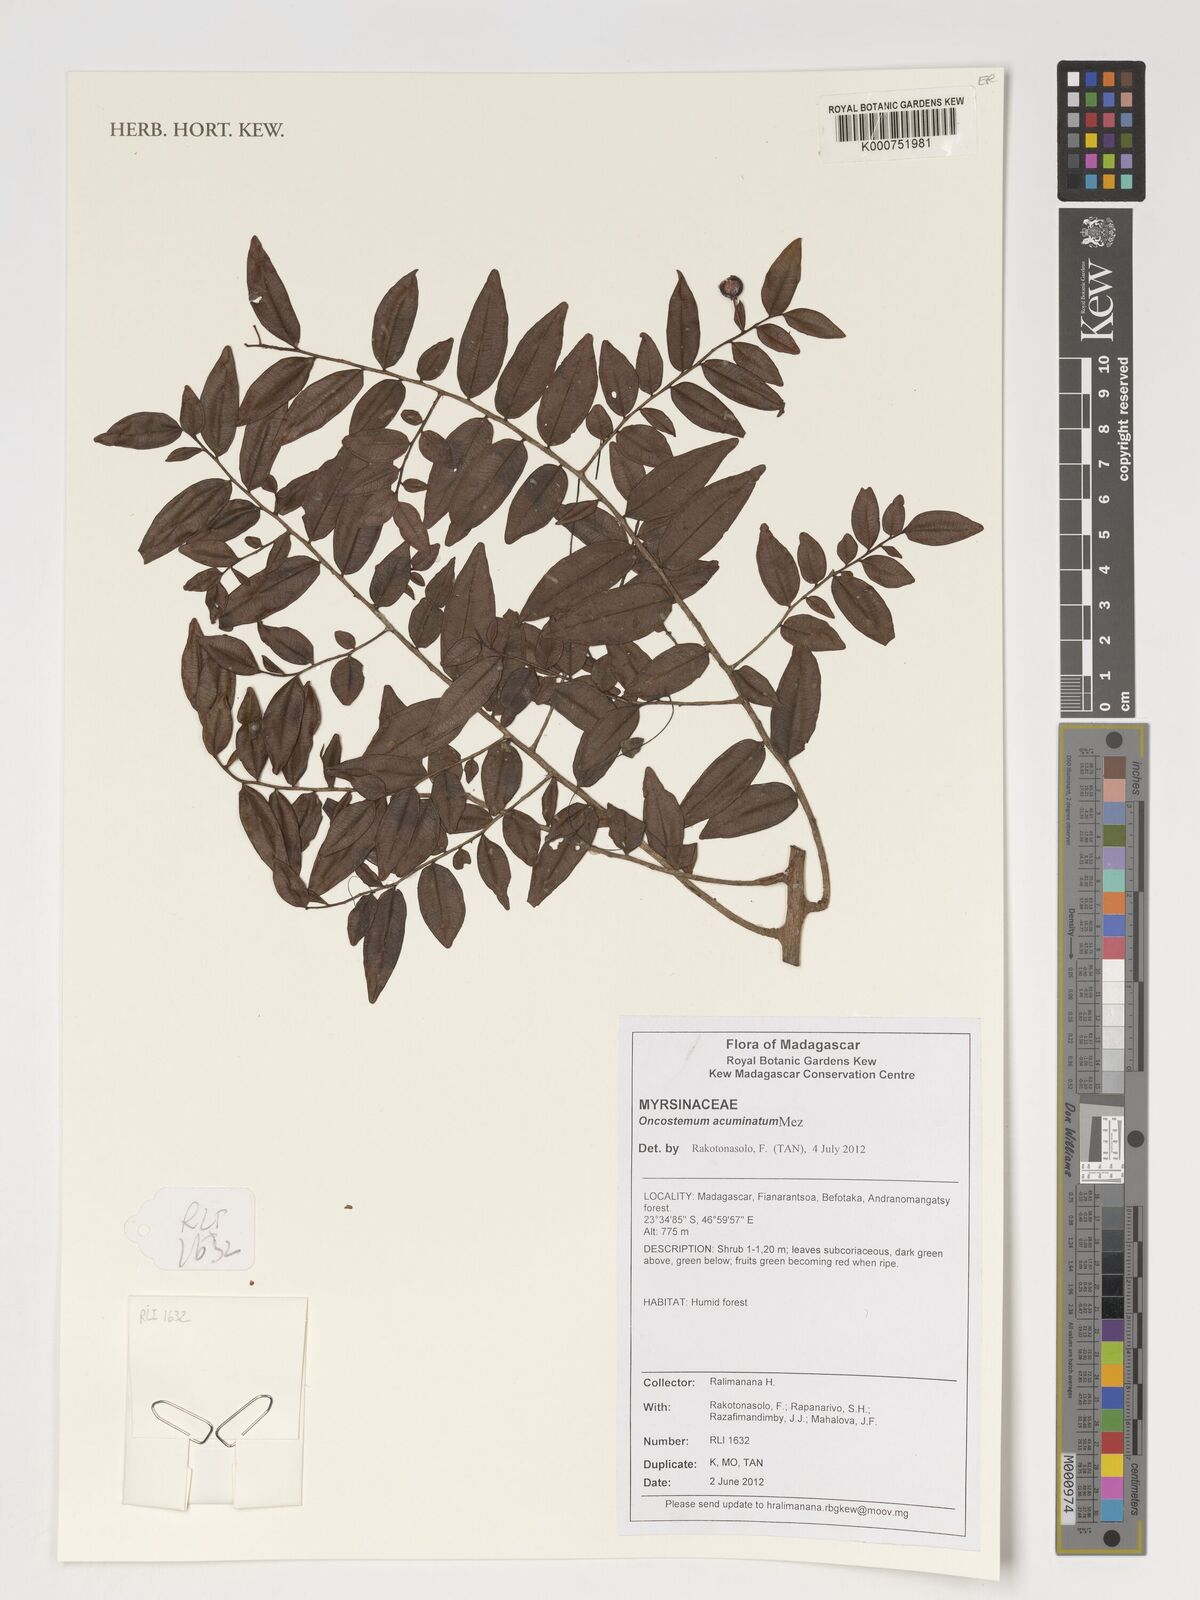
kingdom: Plantae
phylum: Tracheophyta
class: Magnoliopsida
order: Ericales
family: Primulaceae
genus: Oncostemum
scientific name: Oncostemum acuminatum
